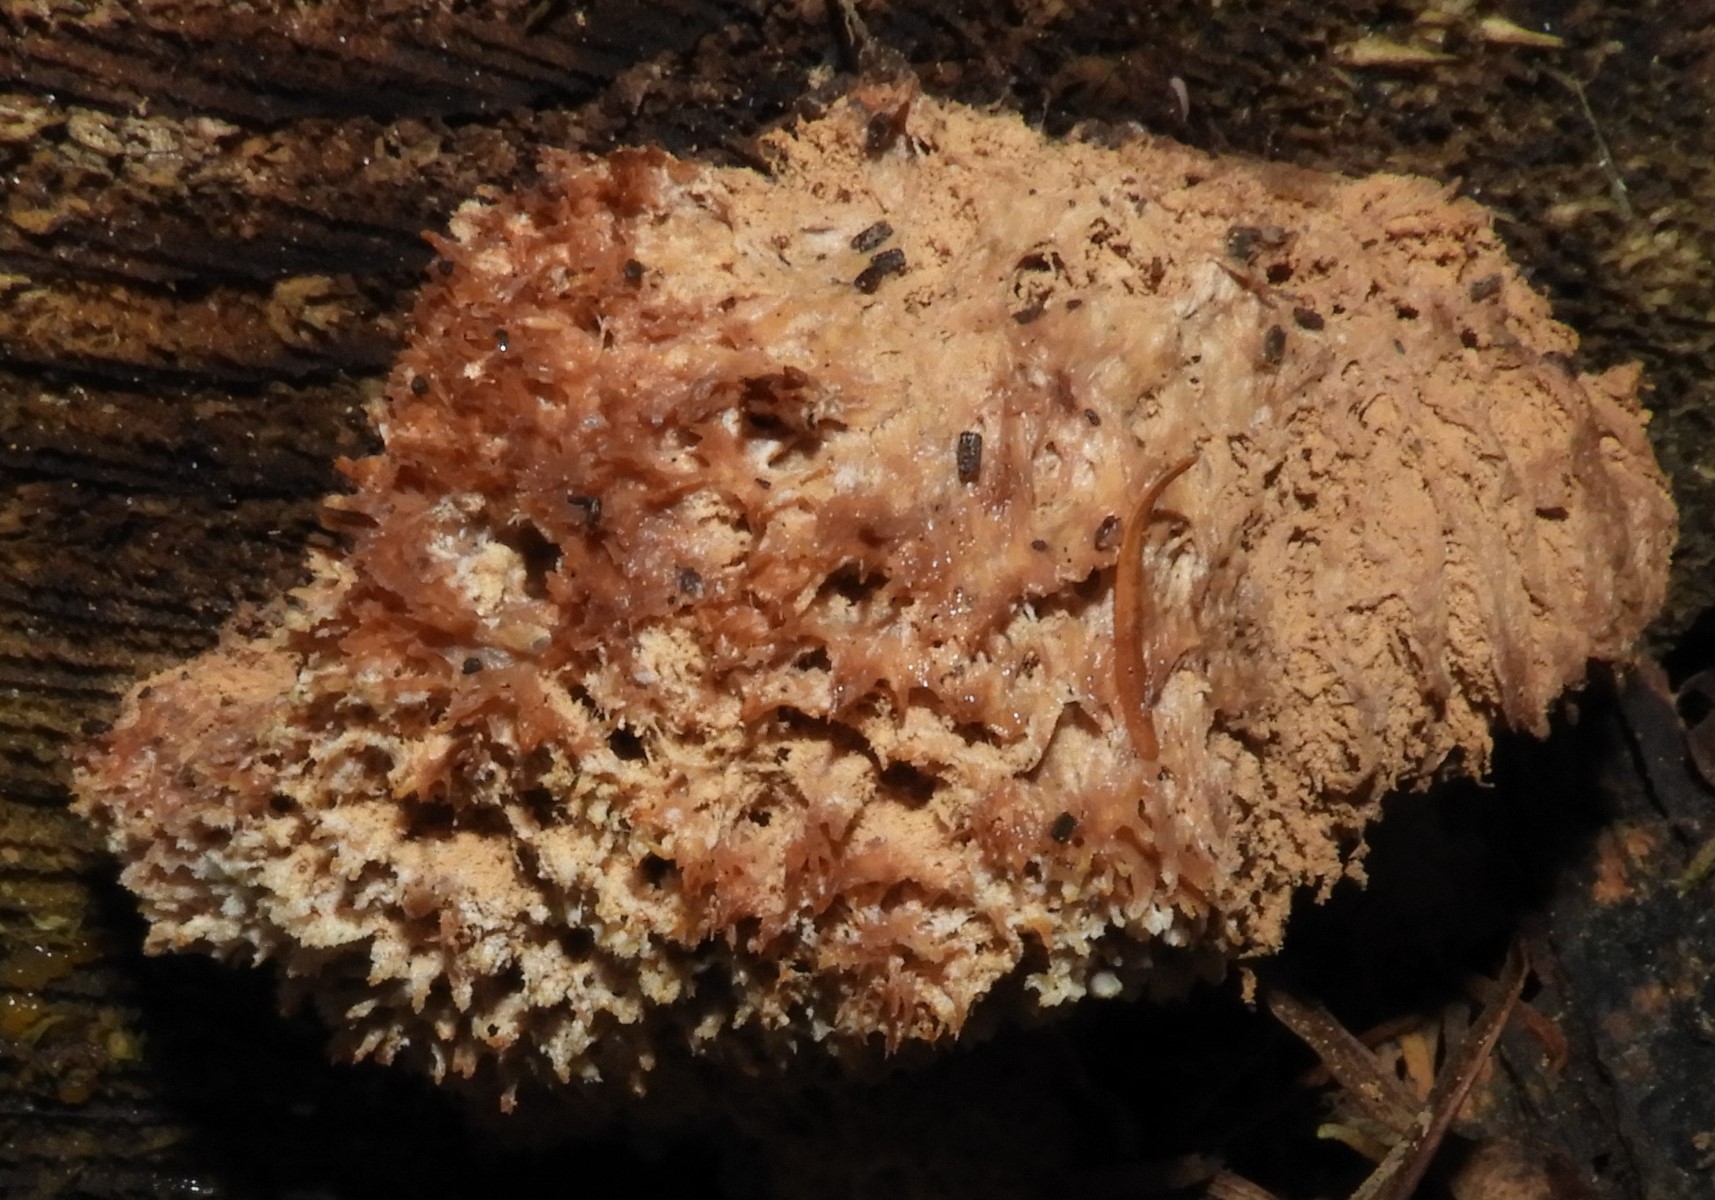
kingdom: Fungi
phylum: Basidiomycota
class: Agaricomycetes
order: Polyporales
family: Dacryobolaceae
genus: Postia
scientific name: Postia ptychogaster
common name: støvende kødporesvamp
